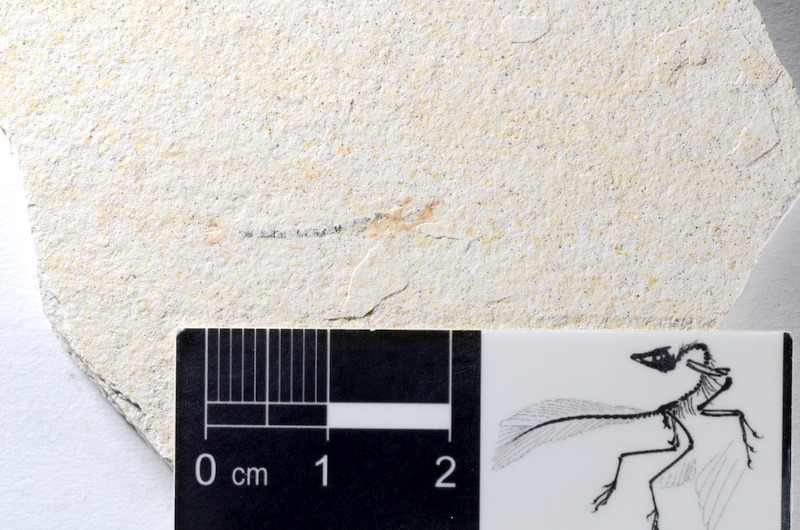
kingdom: Animalia
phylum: Chordata
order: Salmoniformes
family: Orthogonikleithridae
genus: Orthogonikleithrus
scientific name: Orthogonikleithrus hoelli
